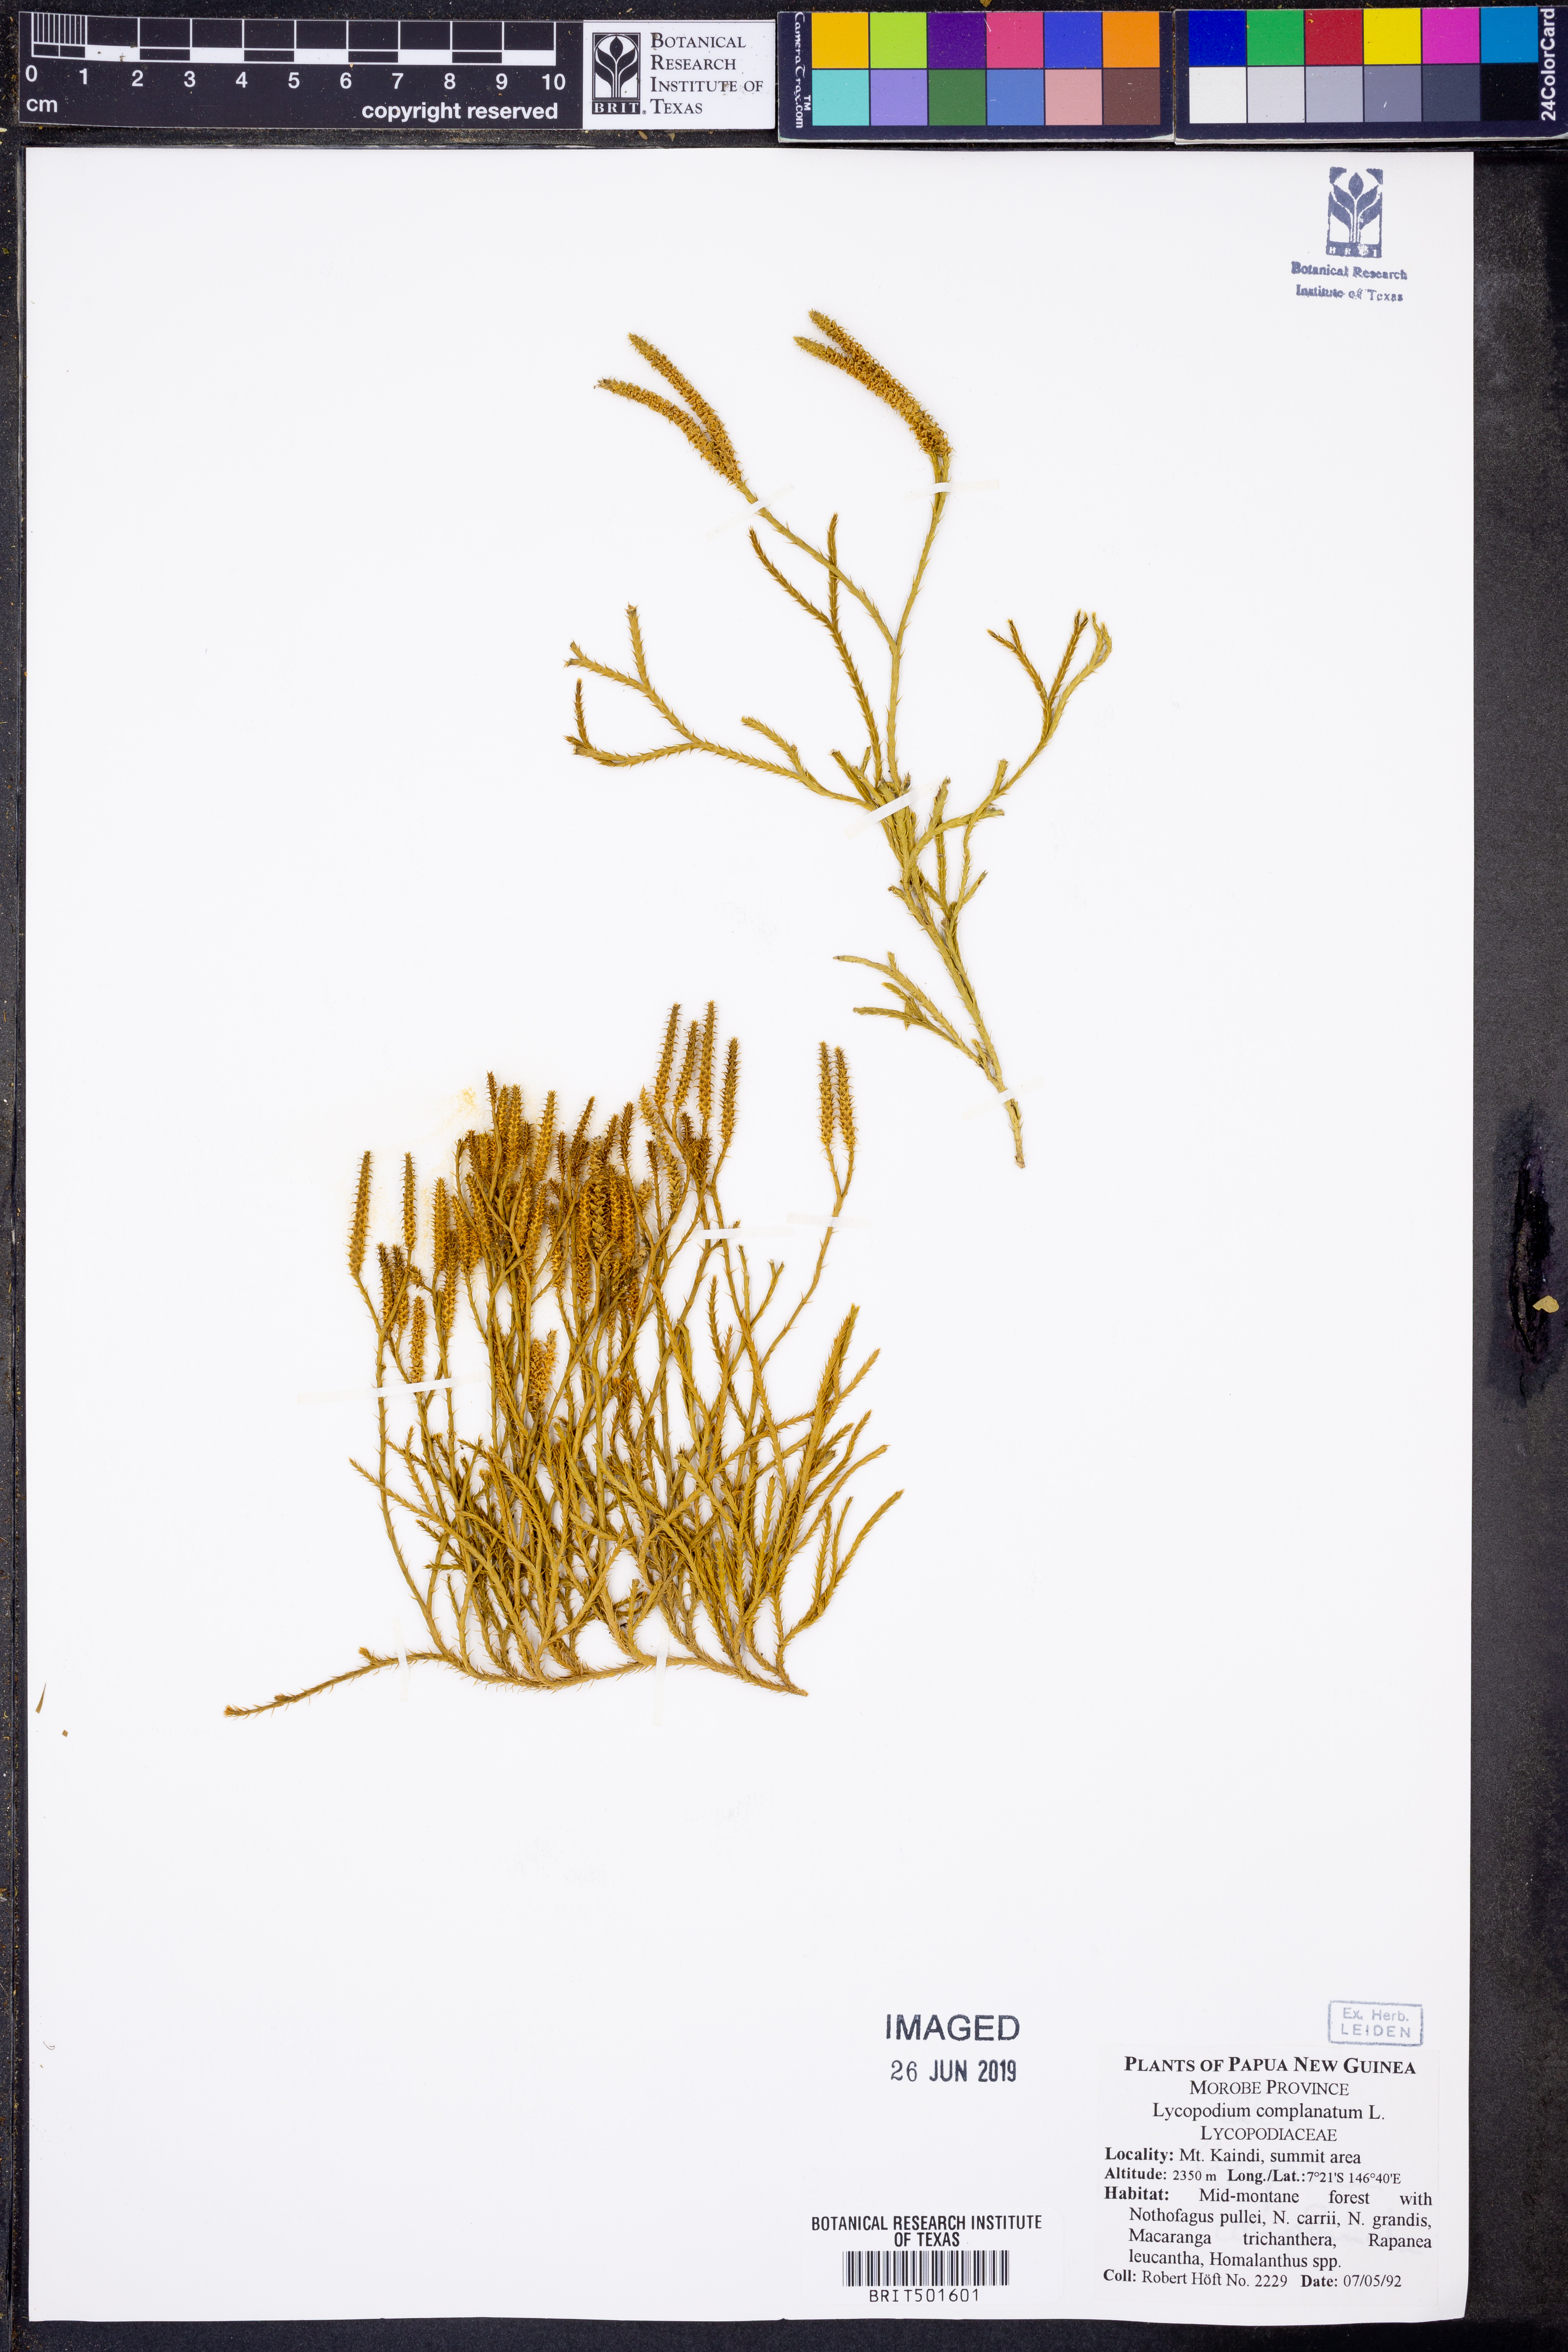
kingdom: Plantae
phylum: Tracheophyta
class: Lycopodiopsida
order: Lycopodiales
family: Lycopodiaceae
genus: Diphasiastrum
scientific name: Diphasiastrum complanatum
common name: Northern running-pine
